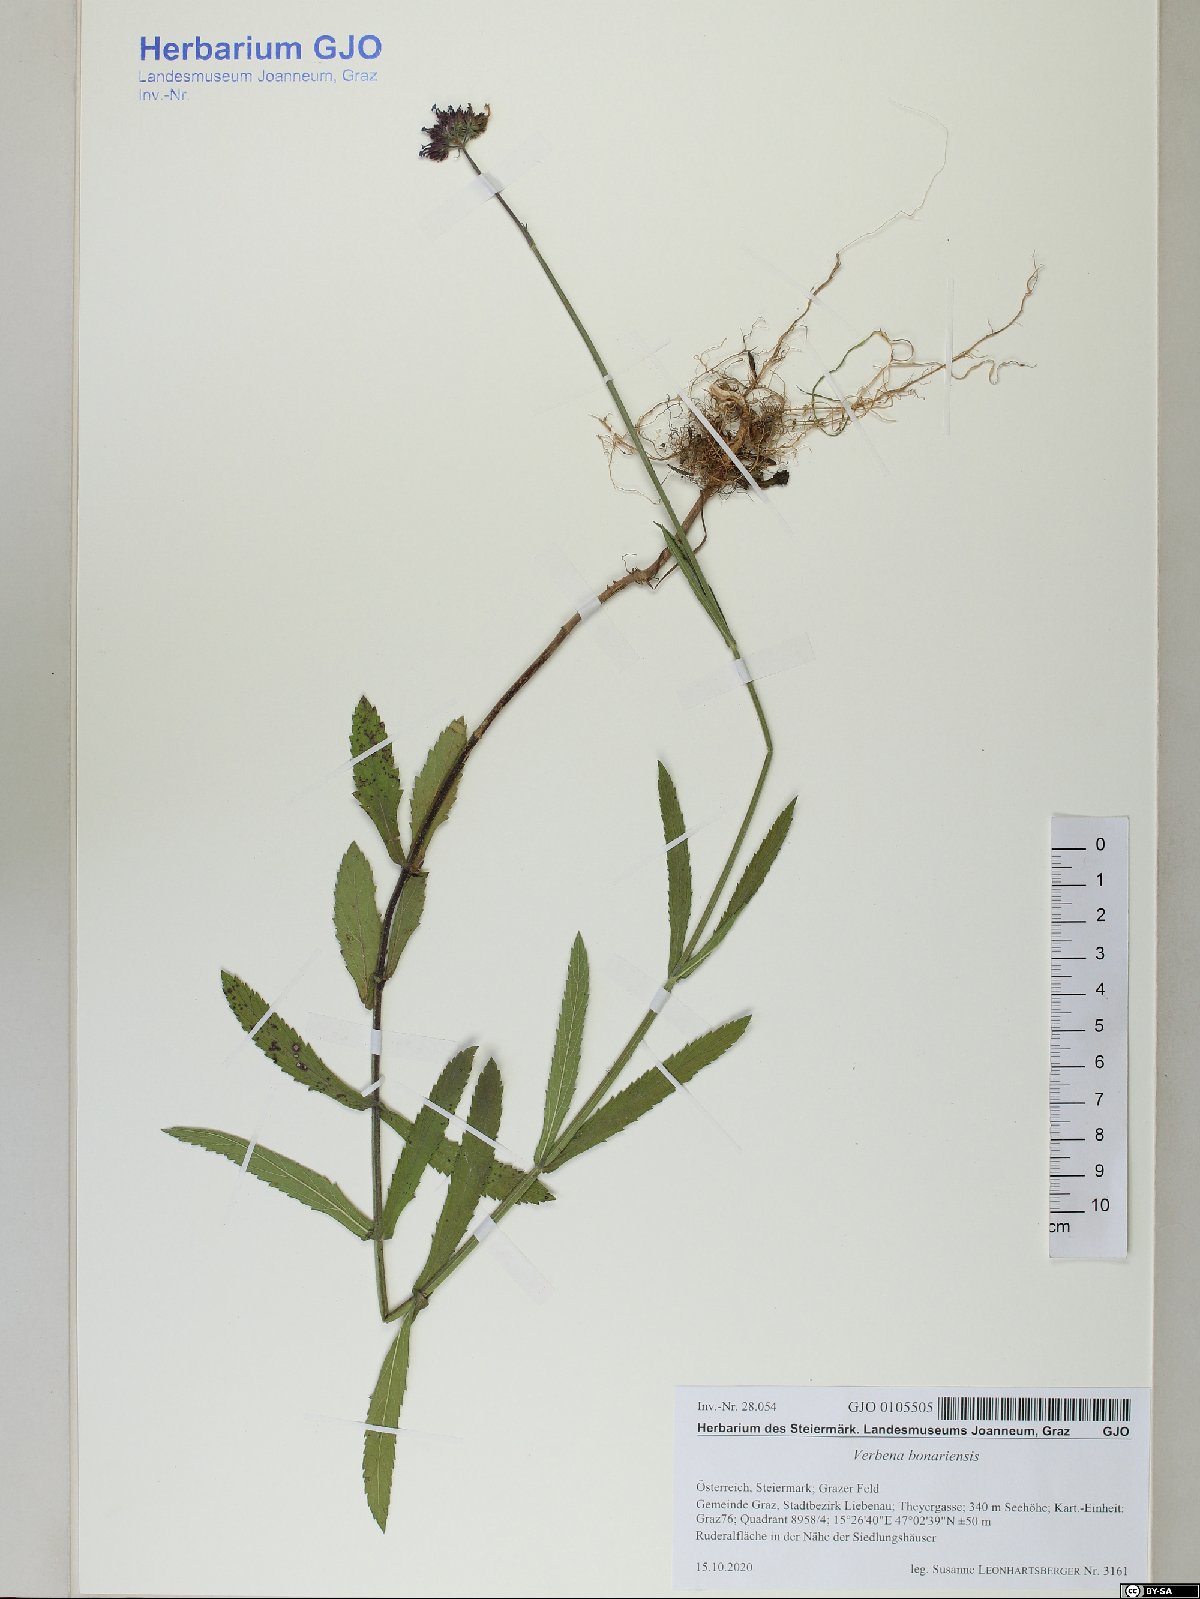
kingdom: Plantae
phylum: Tracheophyta
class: Magnoliopsida
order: Lamiales
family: Verbenaceae
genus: Verbena
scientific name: Verbena bonariensis
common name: Purpletop vervain
